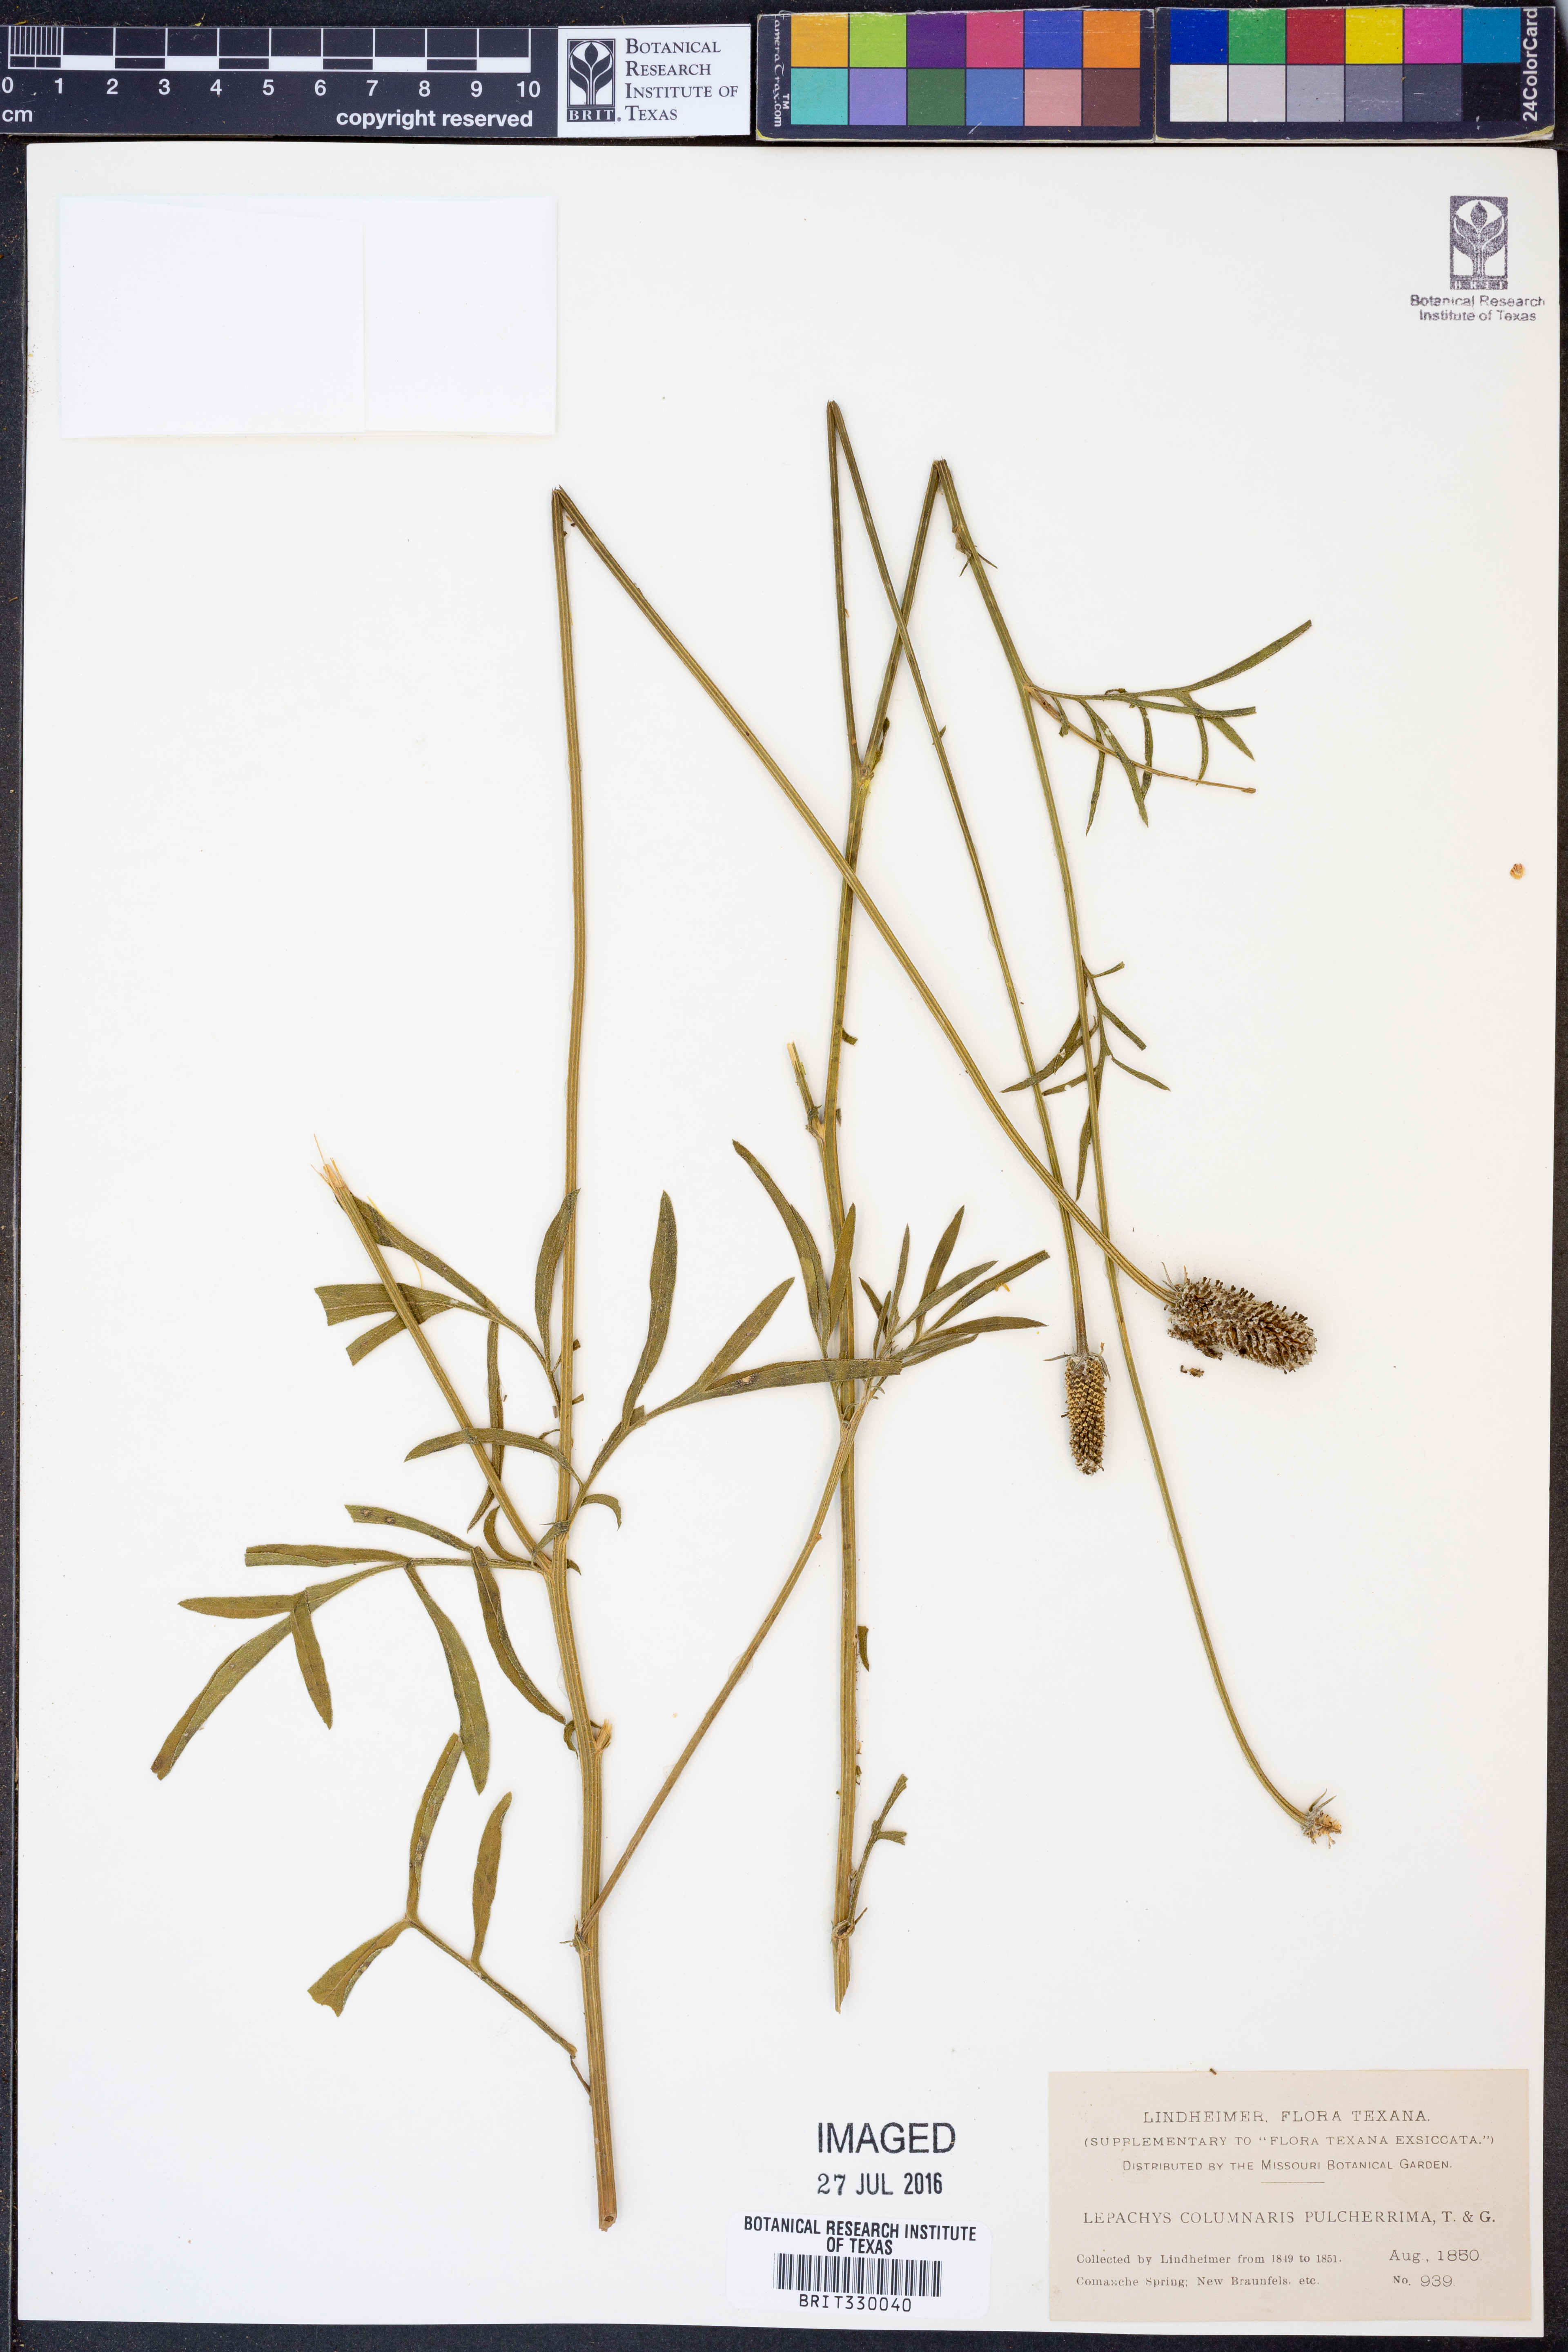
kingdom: Plantae
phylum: Tracheophyta
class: Magnoliopsida
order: Asterales
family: Asteraceae
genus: Ratibida
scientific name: Ratibida columnifera
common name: Prairie coneflower
